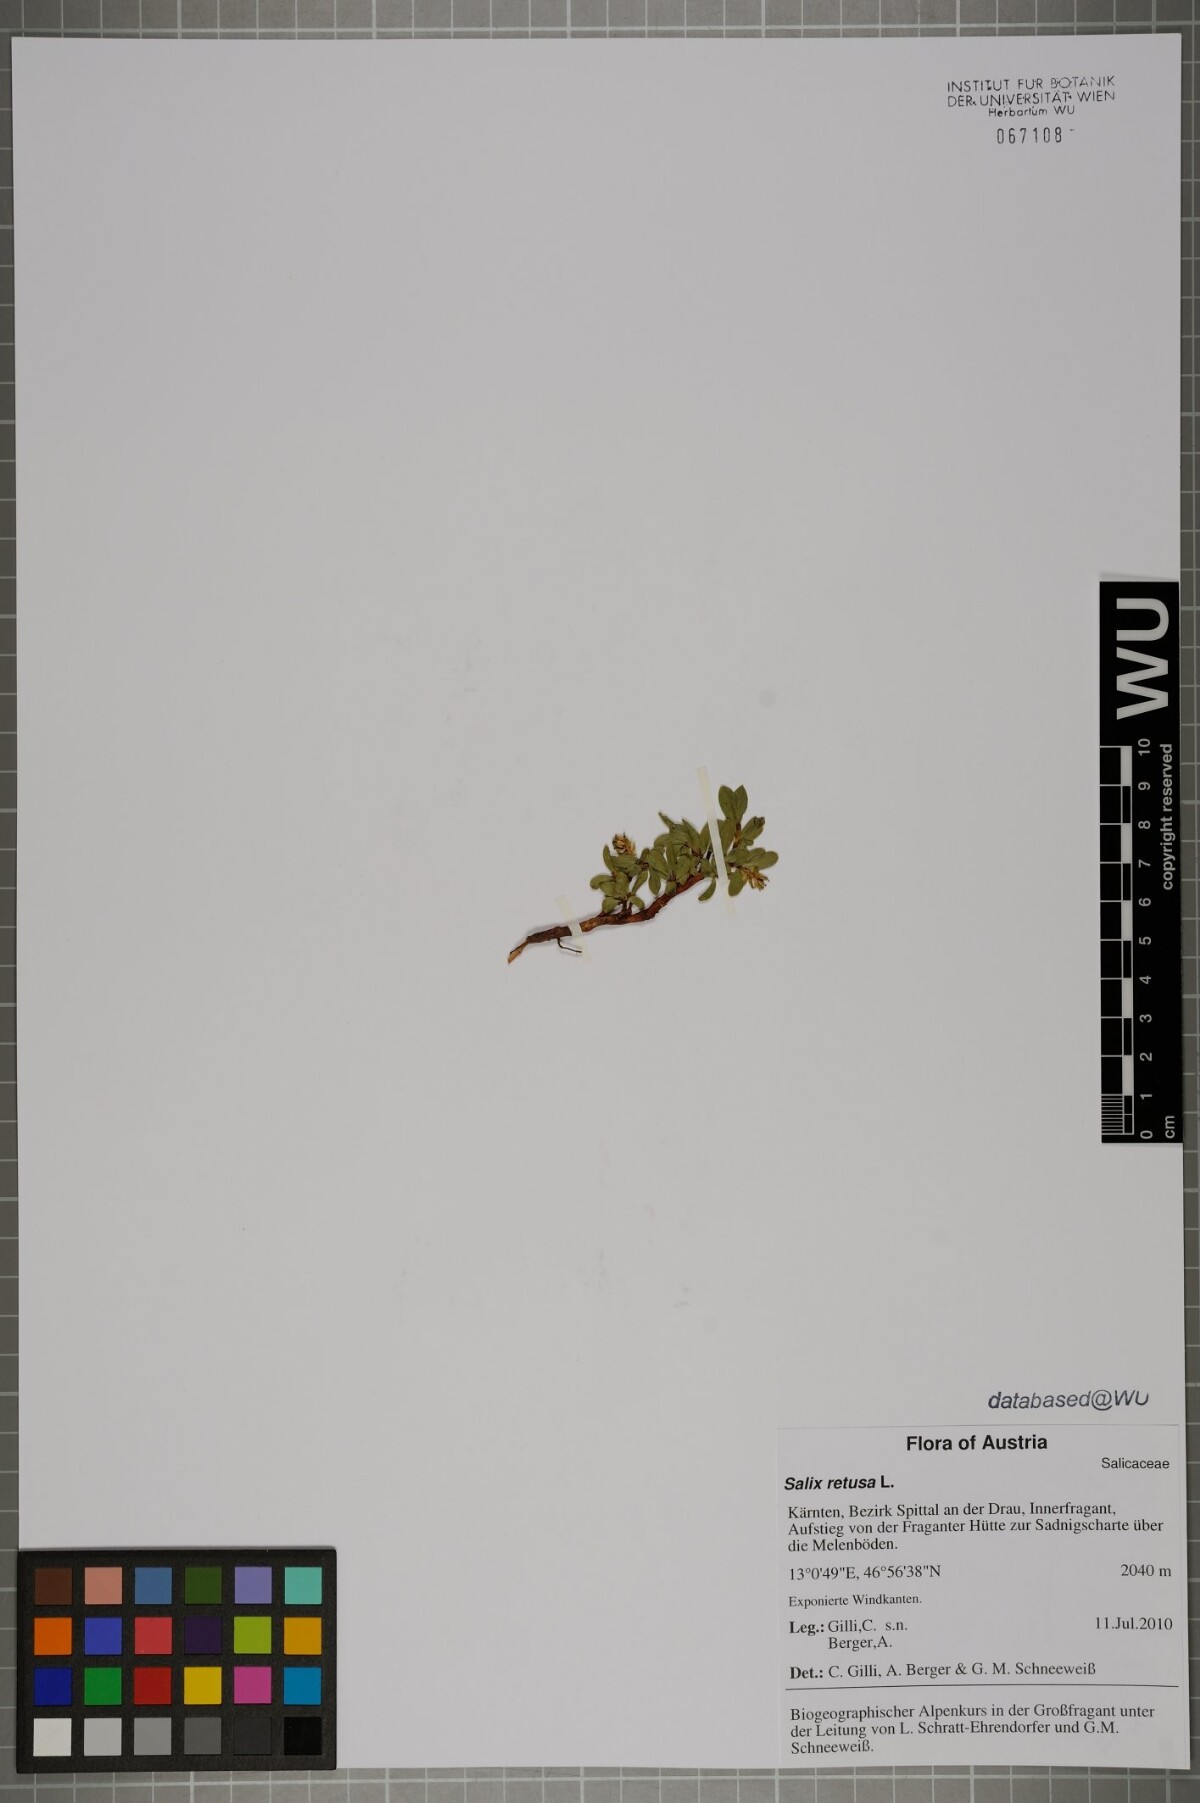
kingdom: Plantae
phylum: Tracheophyta
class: Magnoliopsida
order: Malpighiales
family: Salicaceae
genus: Salix
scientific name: Salix retusa
